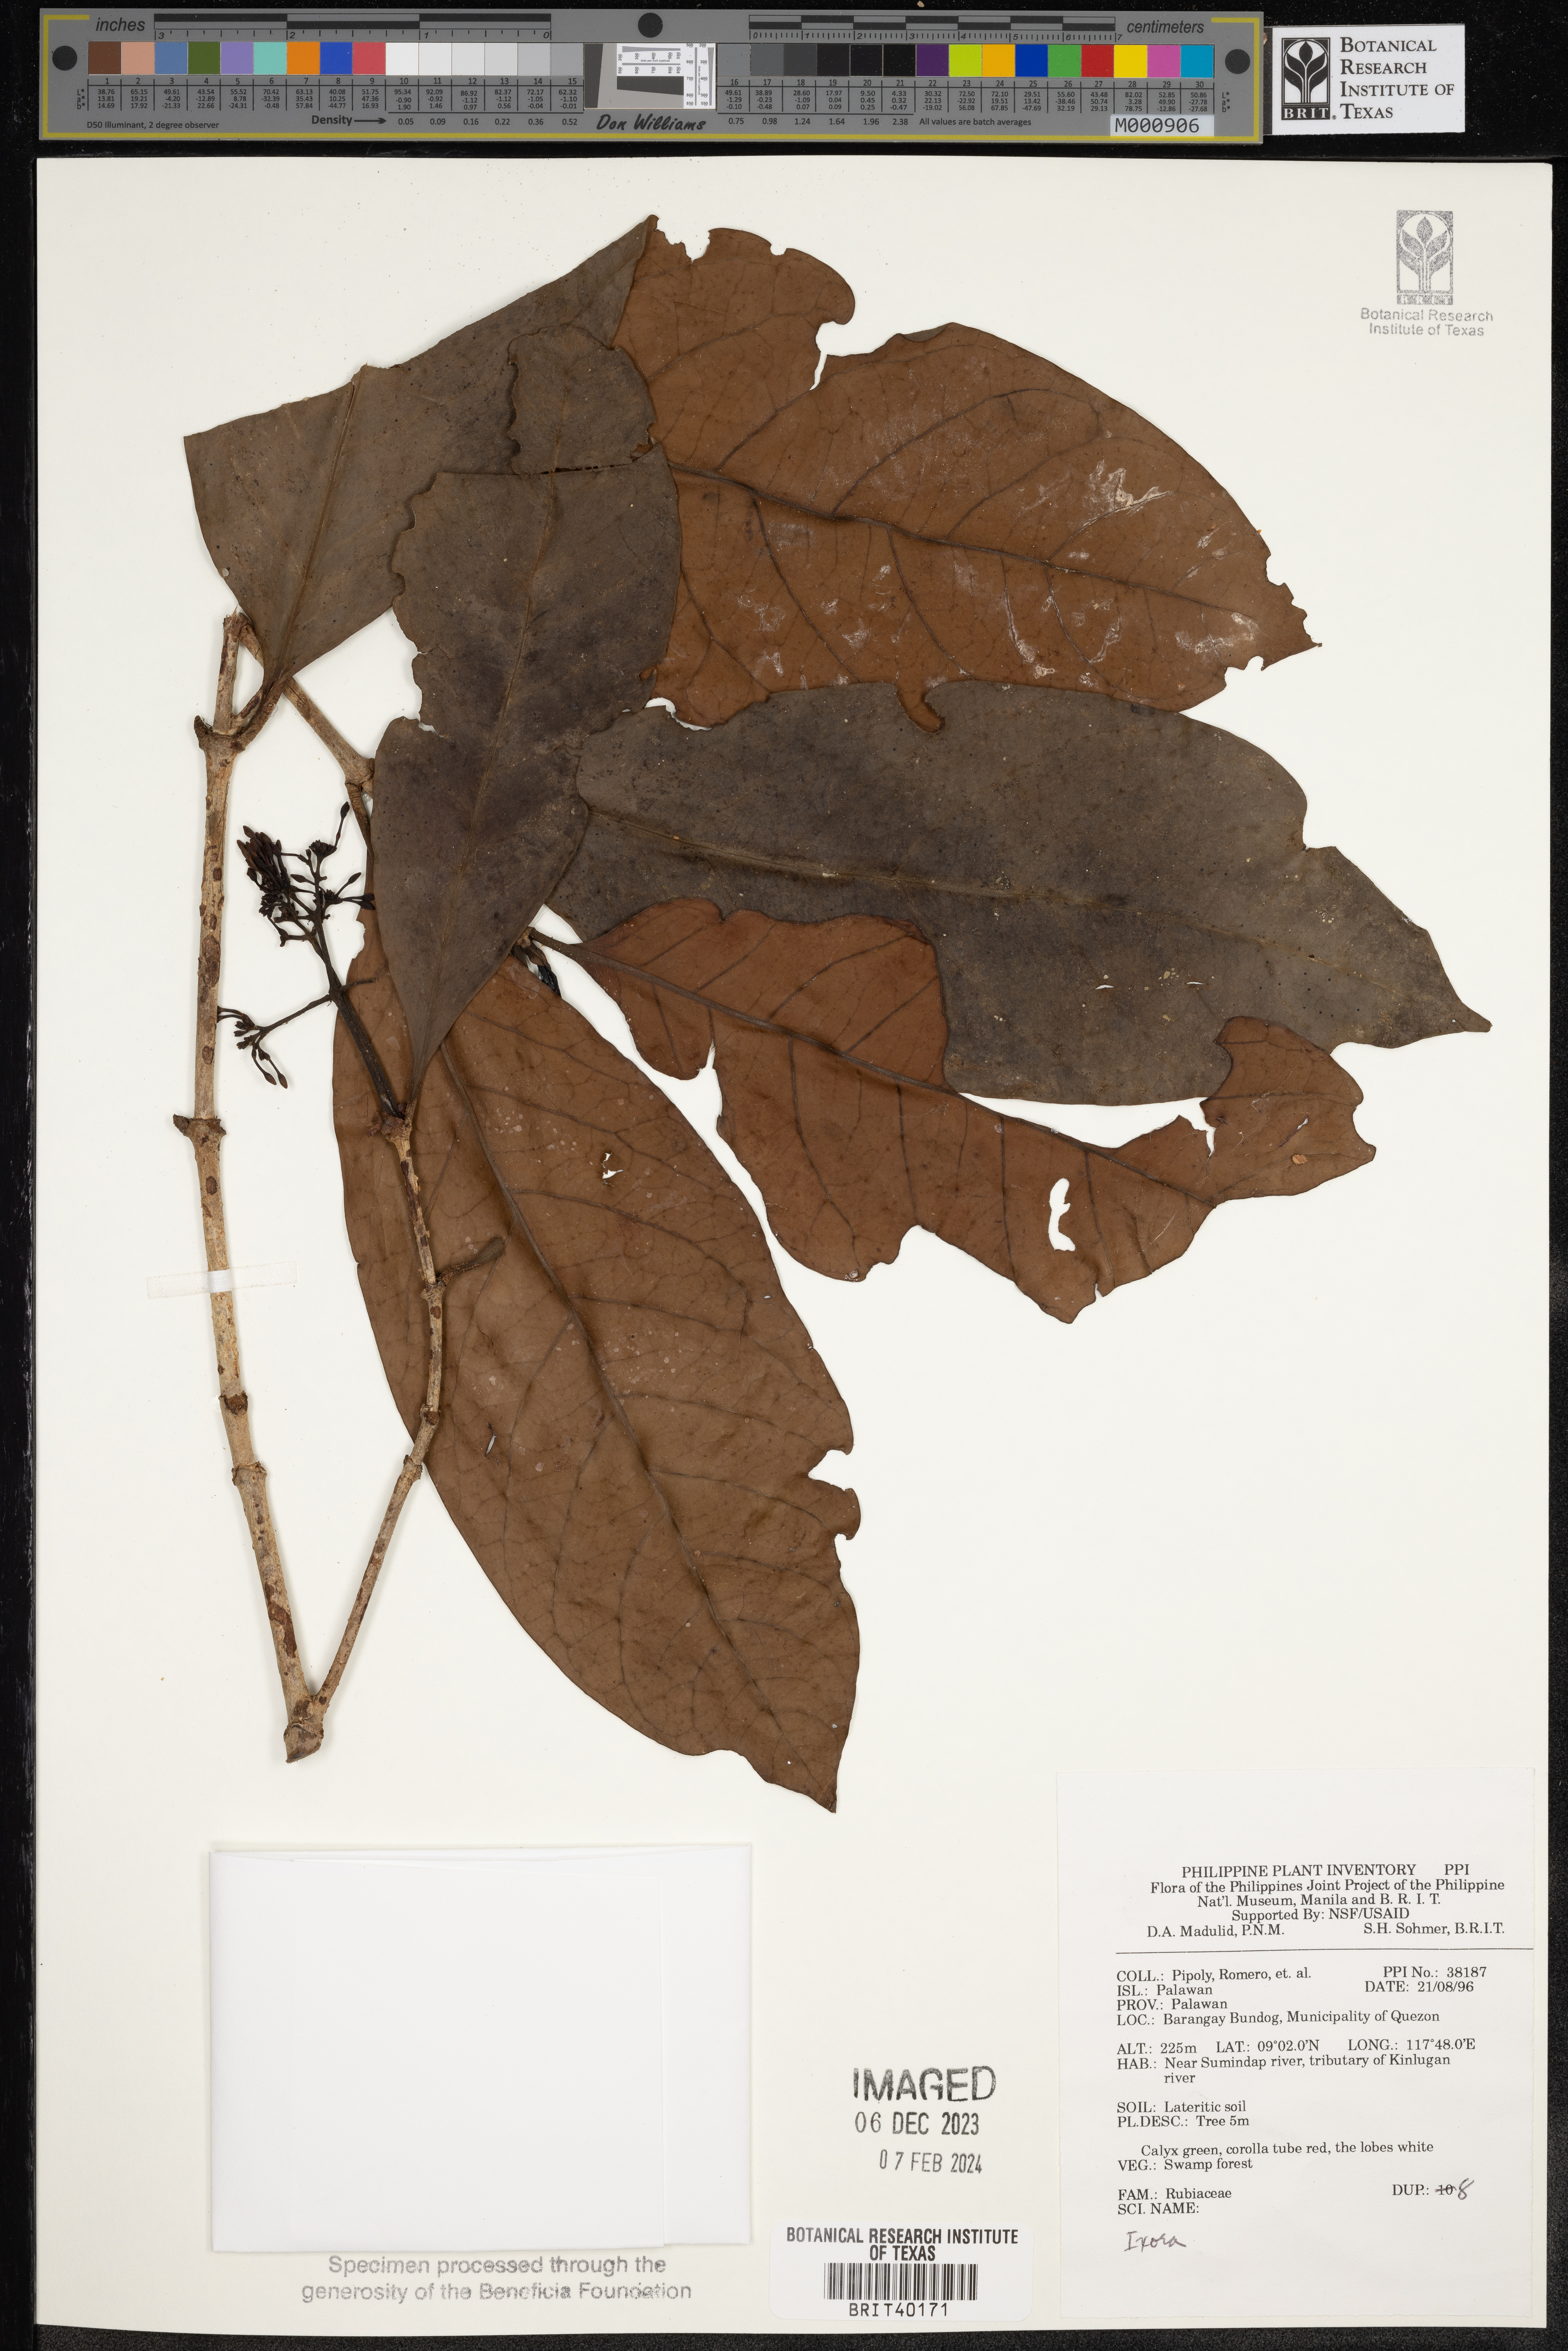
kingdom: Plantae
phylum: Tracheophyta
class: Magnoliopsida
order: Gentianales
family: Rubiaceae
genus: Ixora
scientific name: Ixora
